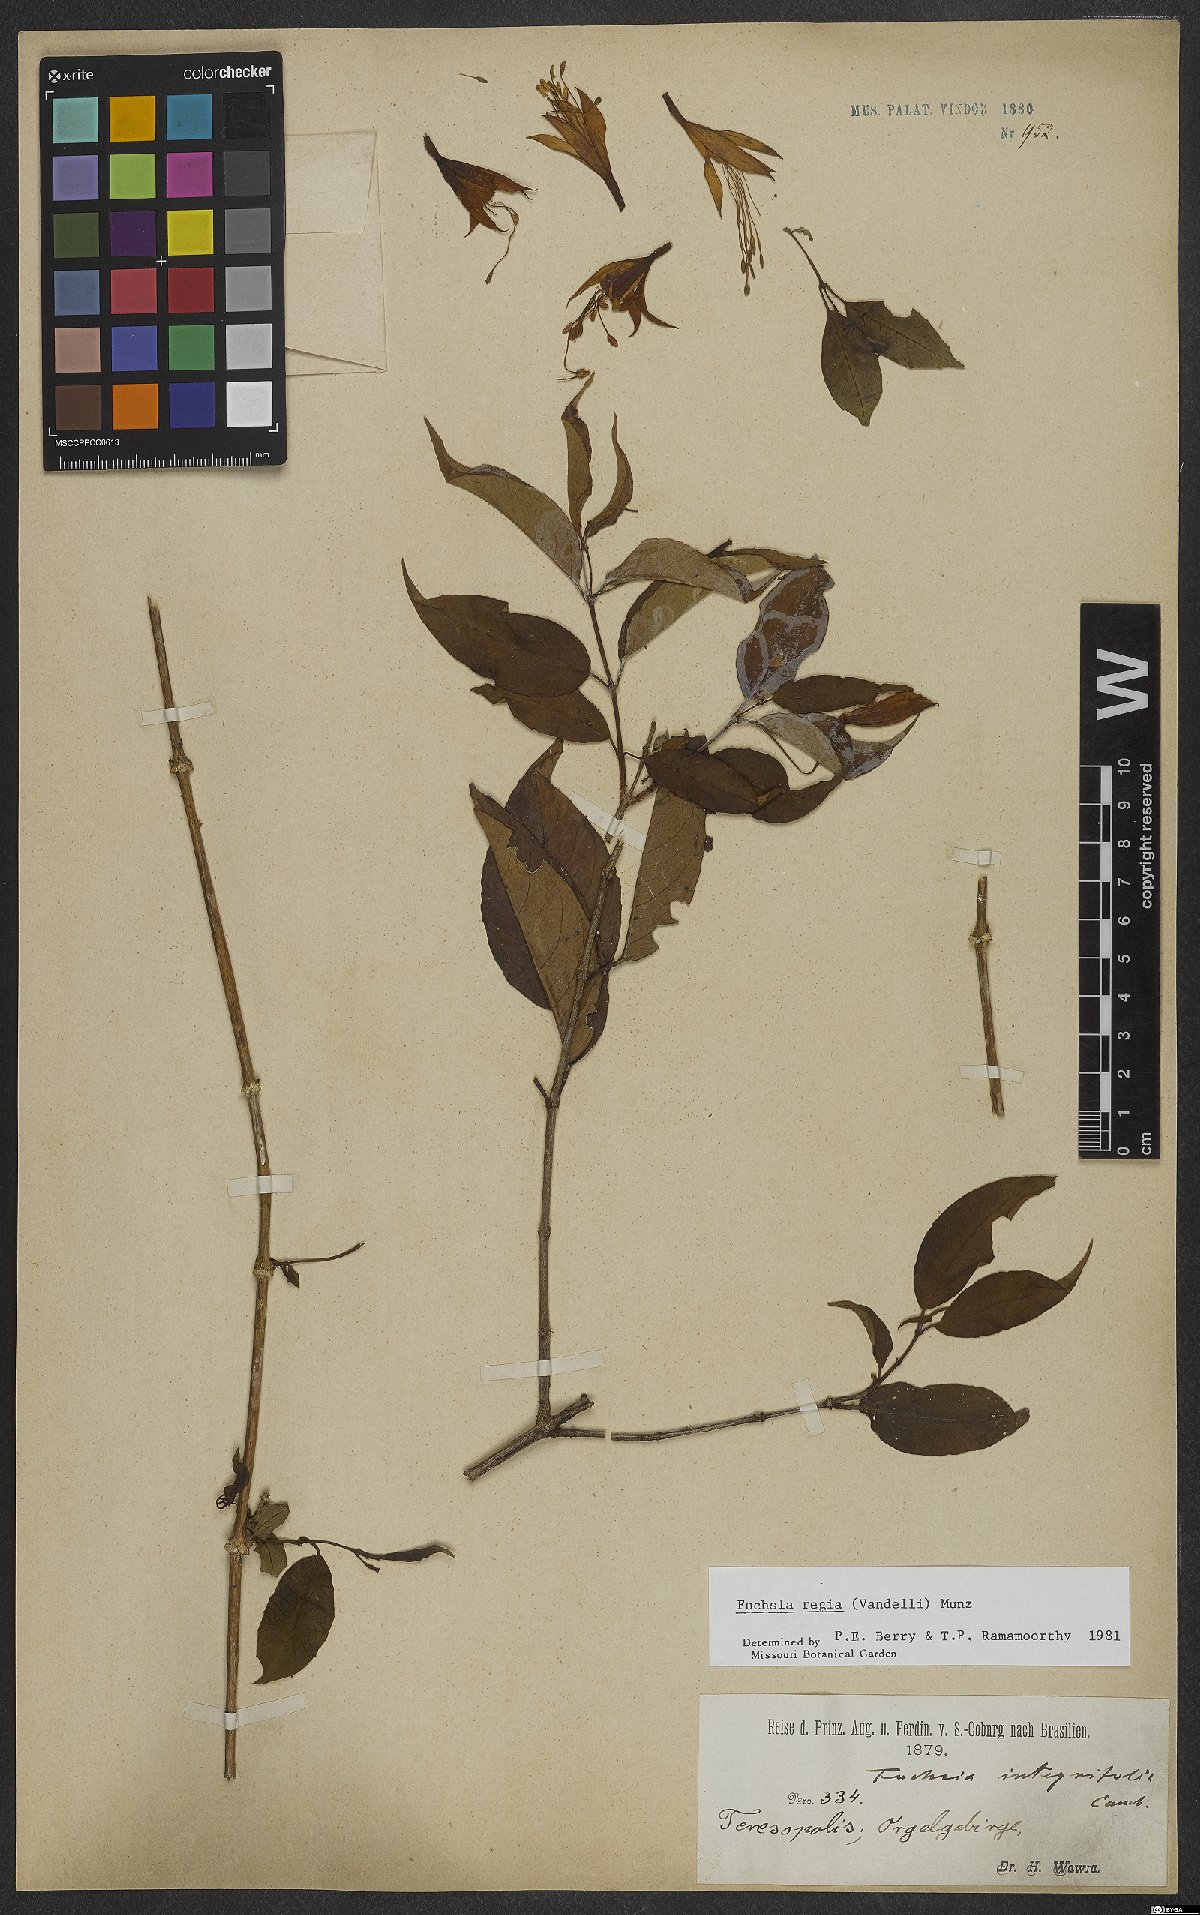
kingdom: Plantae
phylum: Tracheophyta
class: Magnoliopsida
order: Myrtales
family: Onagraceae
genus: Fuchsia
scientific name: Fuchsia regia
